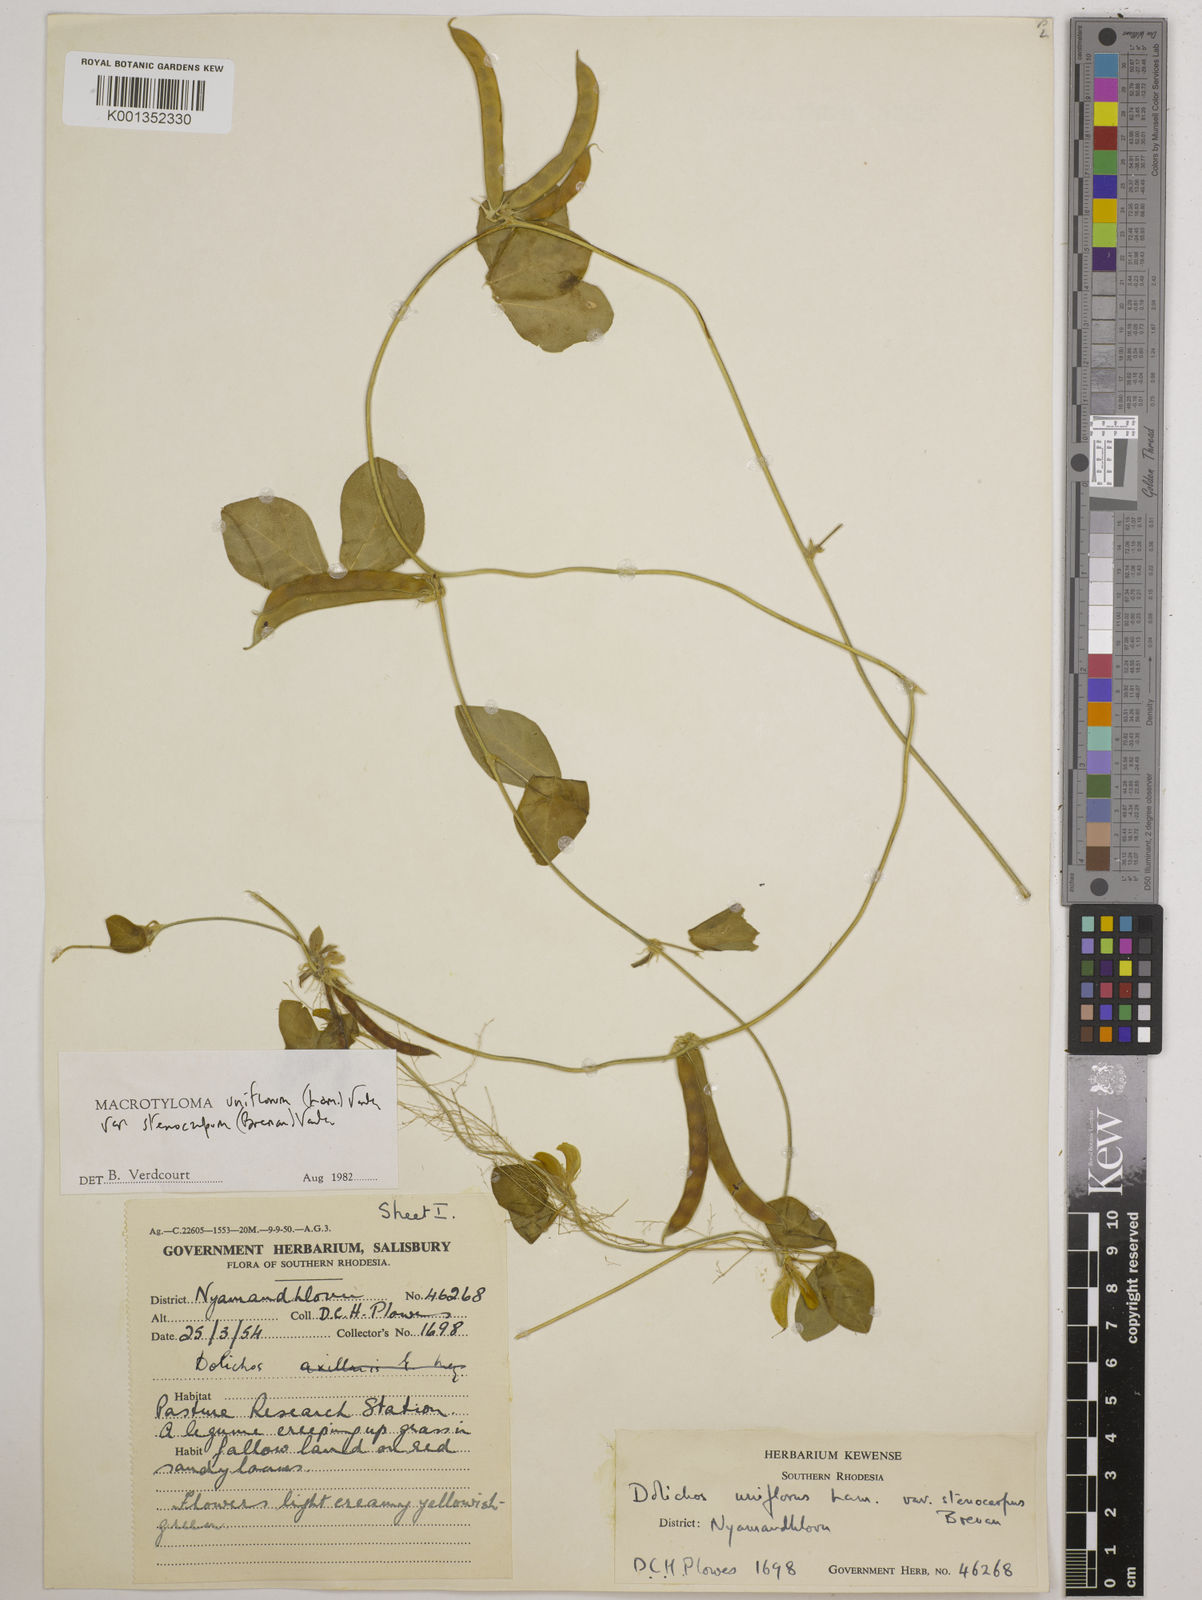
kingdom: Plantae
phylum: Tracheophyta
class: Magnoliopsida
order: Fabales
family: Fabaceae
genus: Macrotyloma
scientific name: Macrotyloma
